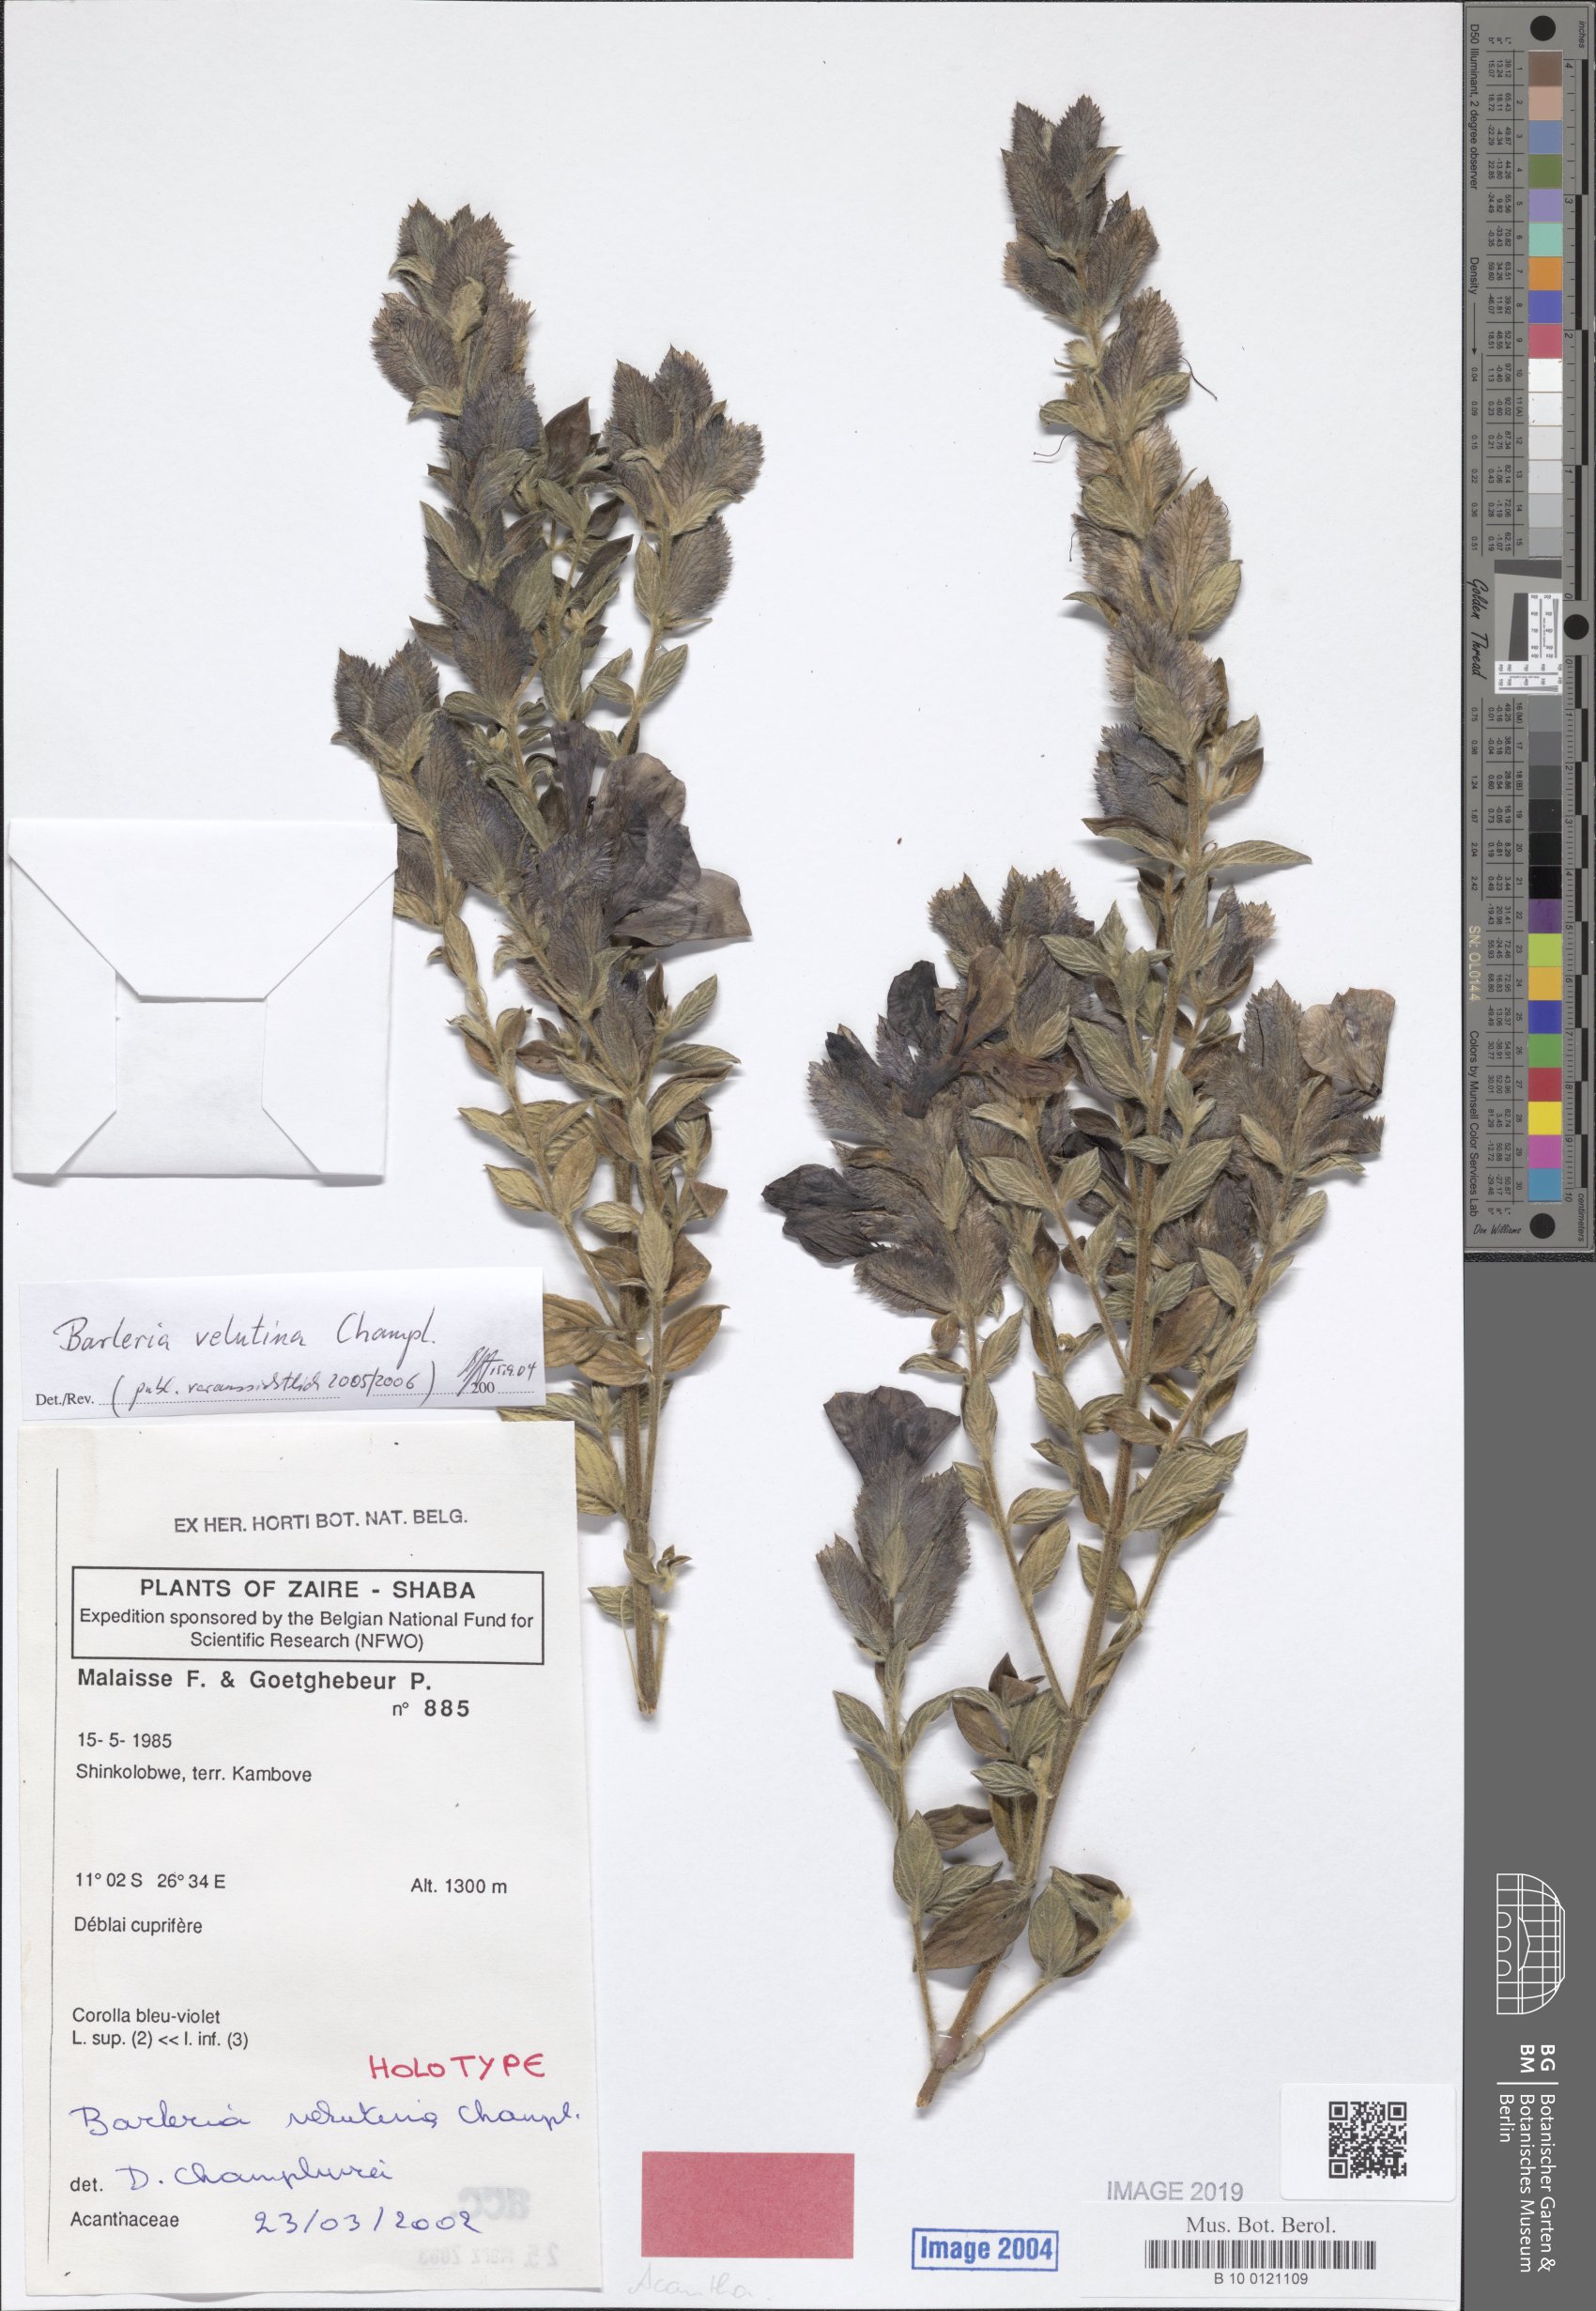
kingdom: Plantae
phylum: Tracheophyta
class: Magnoliopsida
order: Lamiales
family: Acanthaceae
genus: Barleria
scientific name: Barleria velutina
